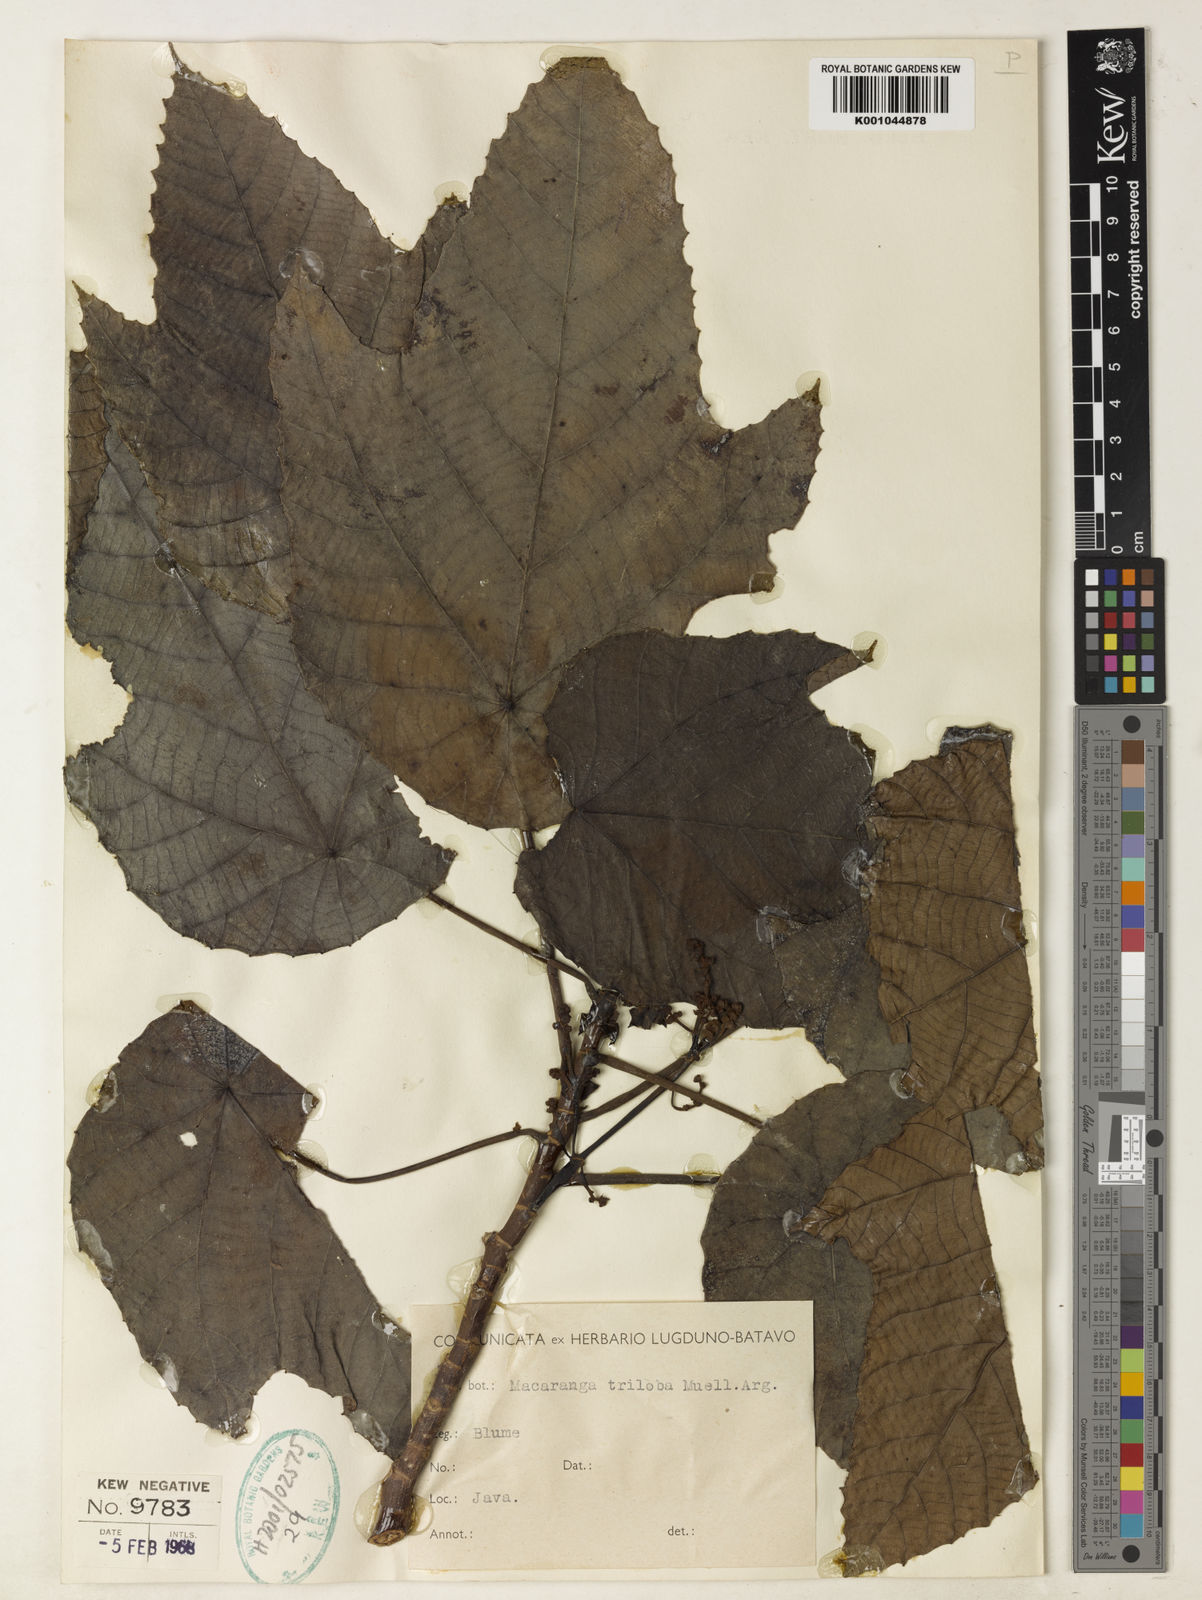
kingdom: Plantae
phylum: Tracheophyta
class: Magnoliopsida
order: Malpighiales
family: Euphorbiaceae
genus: Macaranga
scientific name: Macaranga
